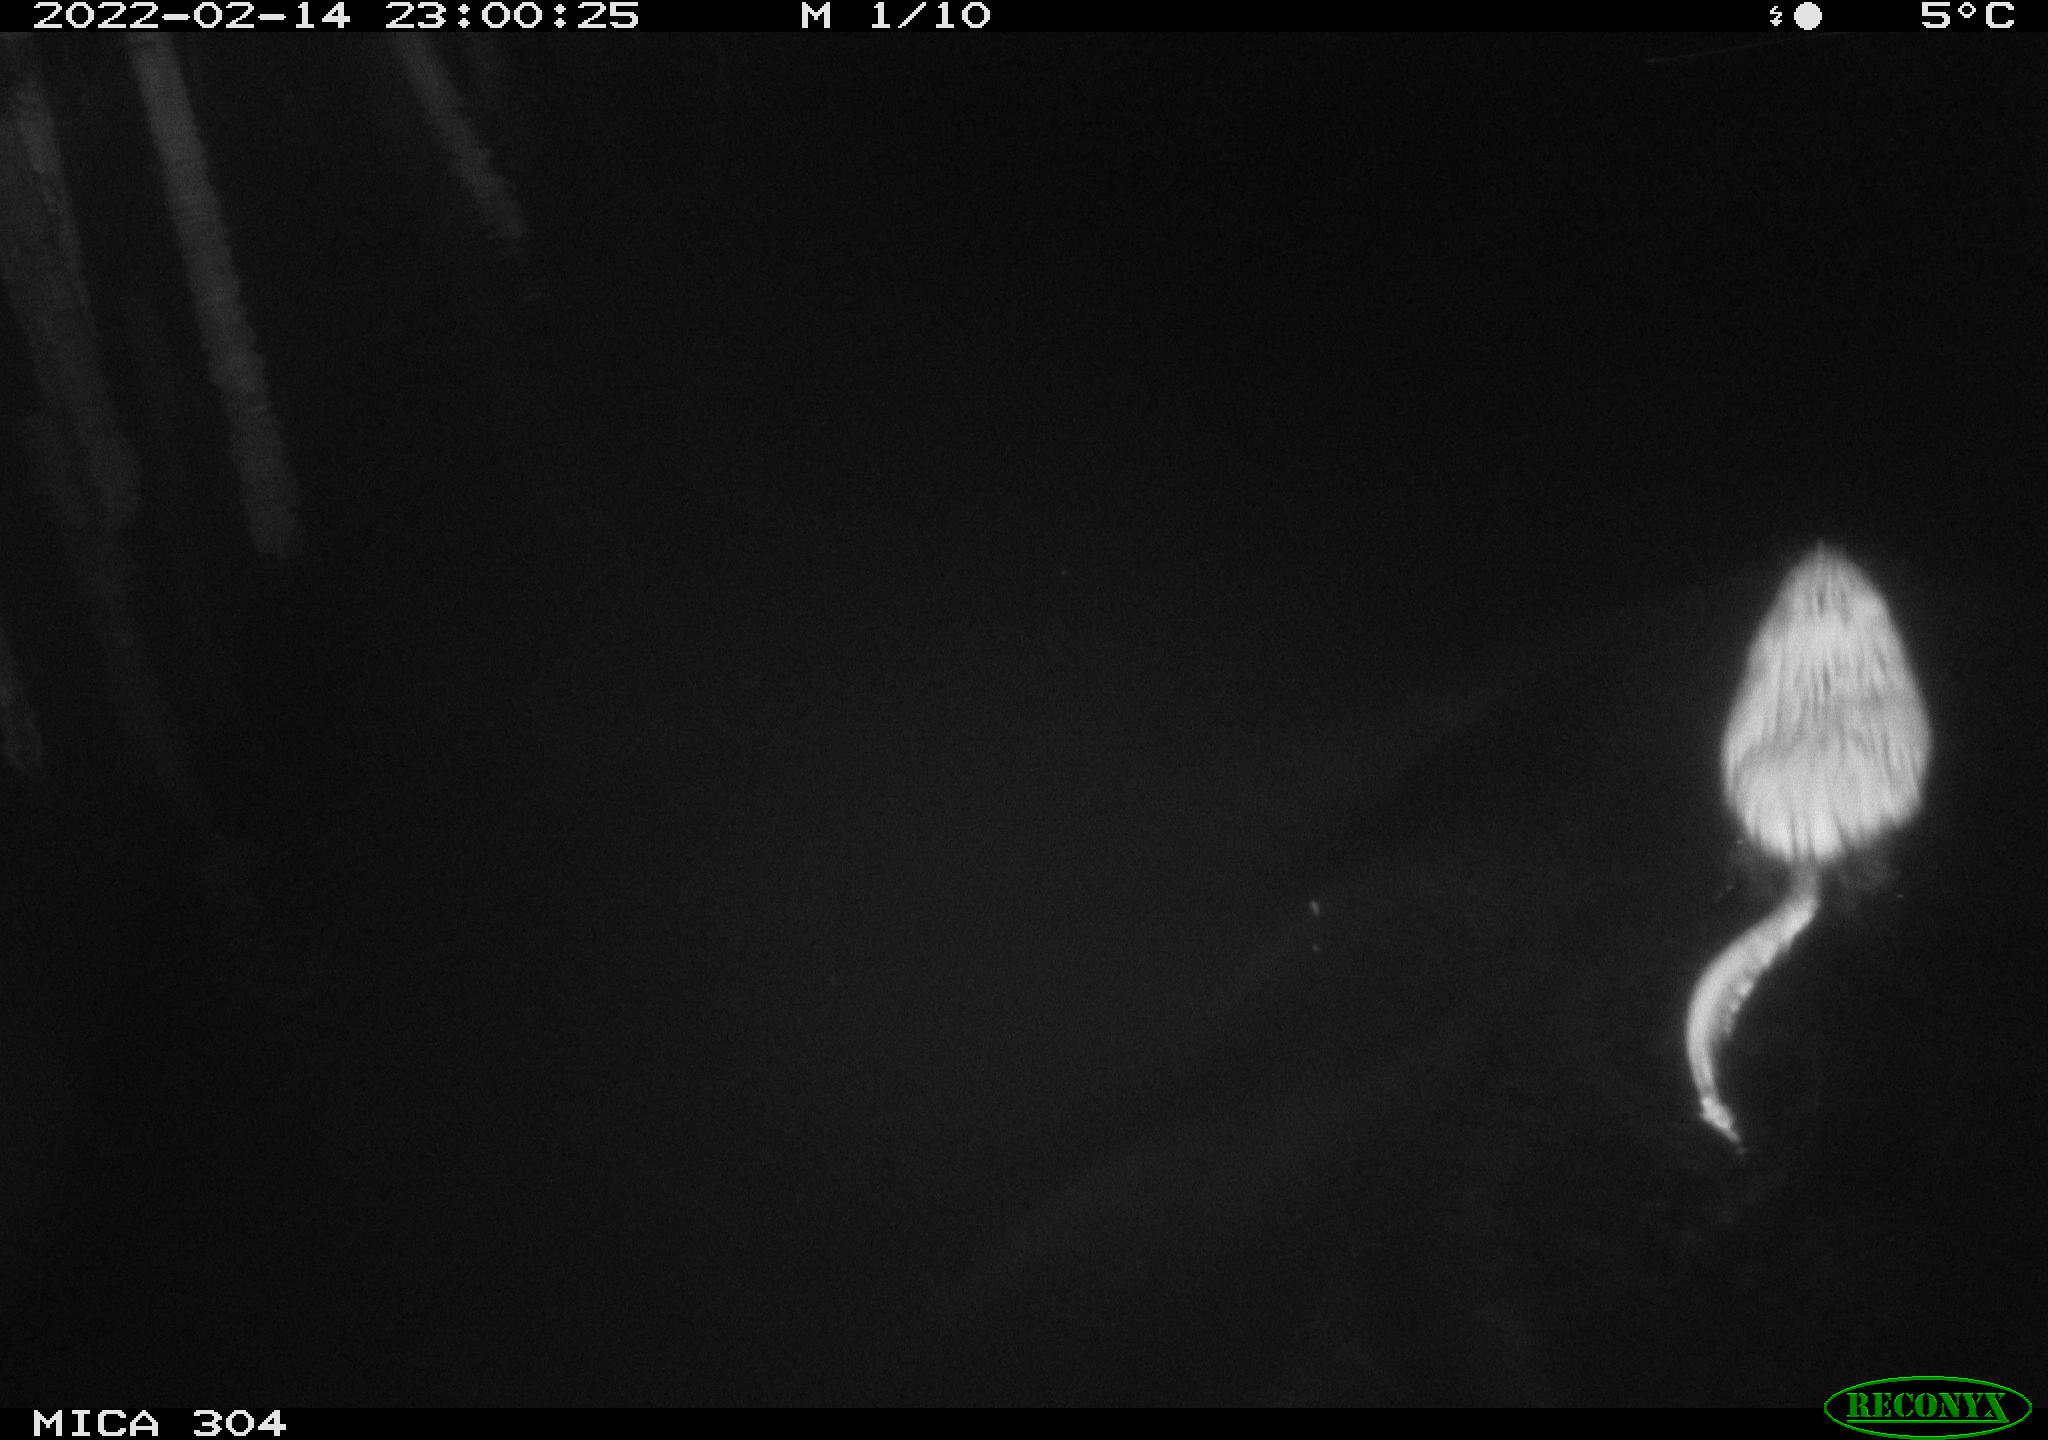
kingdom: Animalia
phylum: Chordata
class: Mammalia
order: Rodentia
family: Cricetidae
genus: Ondatra
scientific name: Ondatra zibethicus
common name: Muskrat
